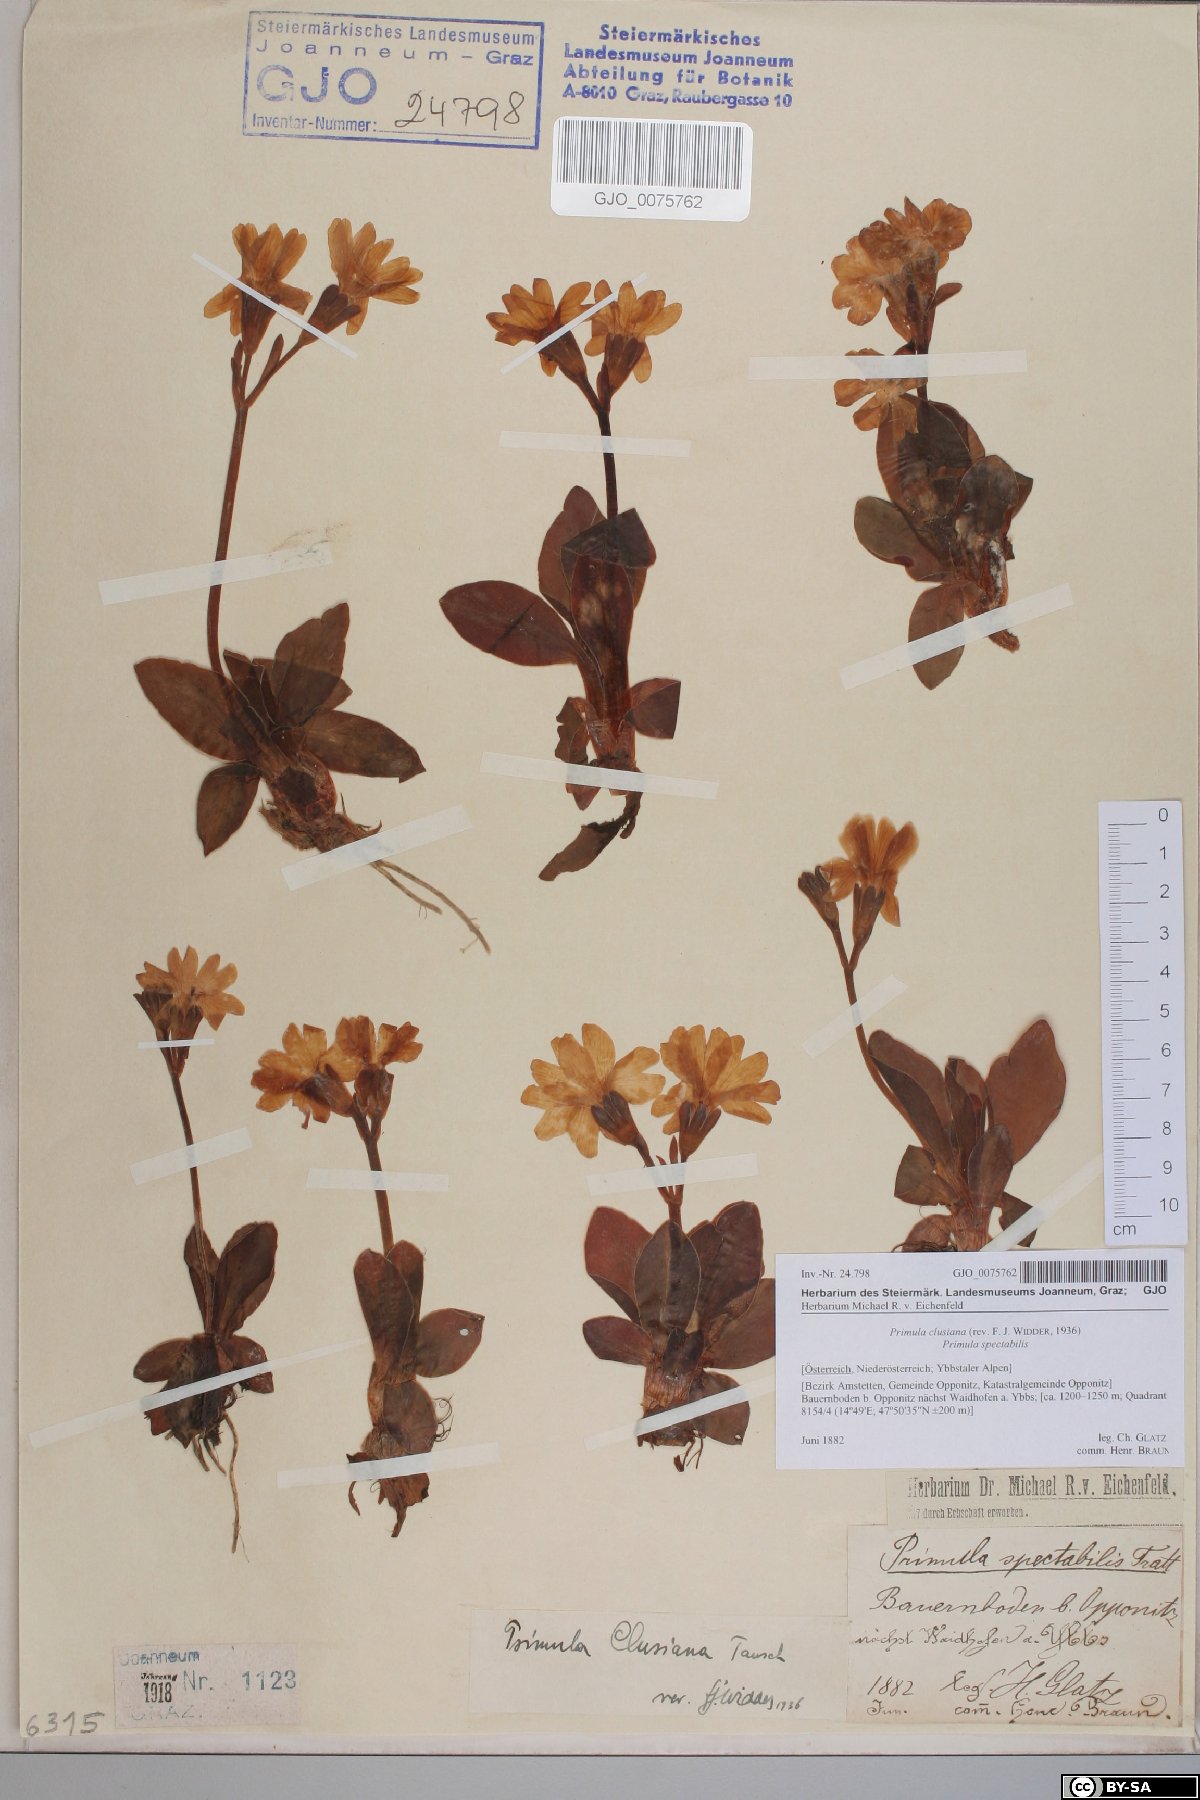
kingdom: Plantae
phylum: Tracheophyta
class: Magnoliopsida
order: Ericales
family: Primulaceae
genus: Primula
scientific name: Primula clusiana
